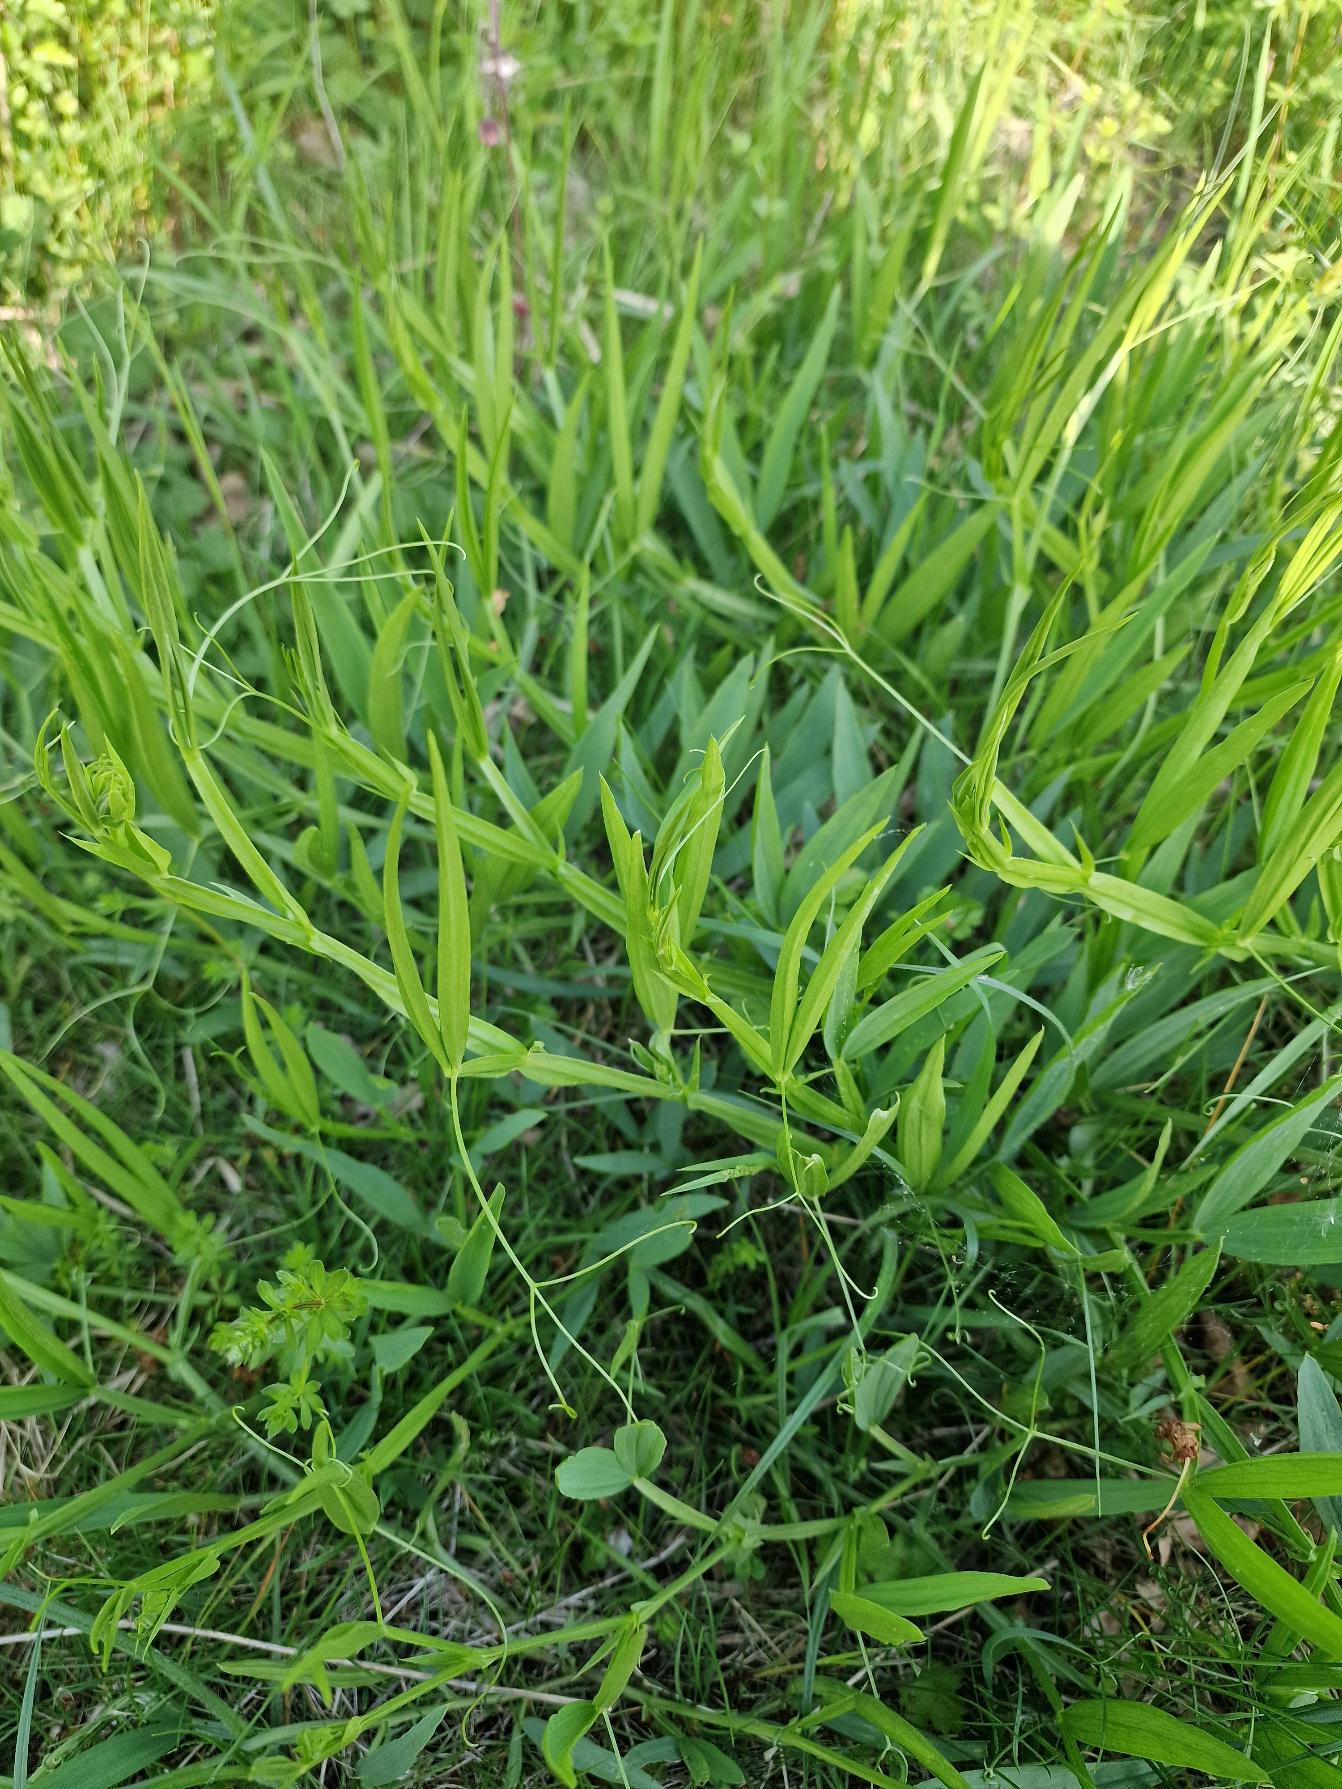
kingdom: Plantae
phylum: Tracheophyta
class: Magnoliopsida
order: Fabales
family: Fabaceae
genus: Lathyrus
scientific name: Lathyrus sylvestris
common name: Skov-fladbælg
